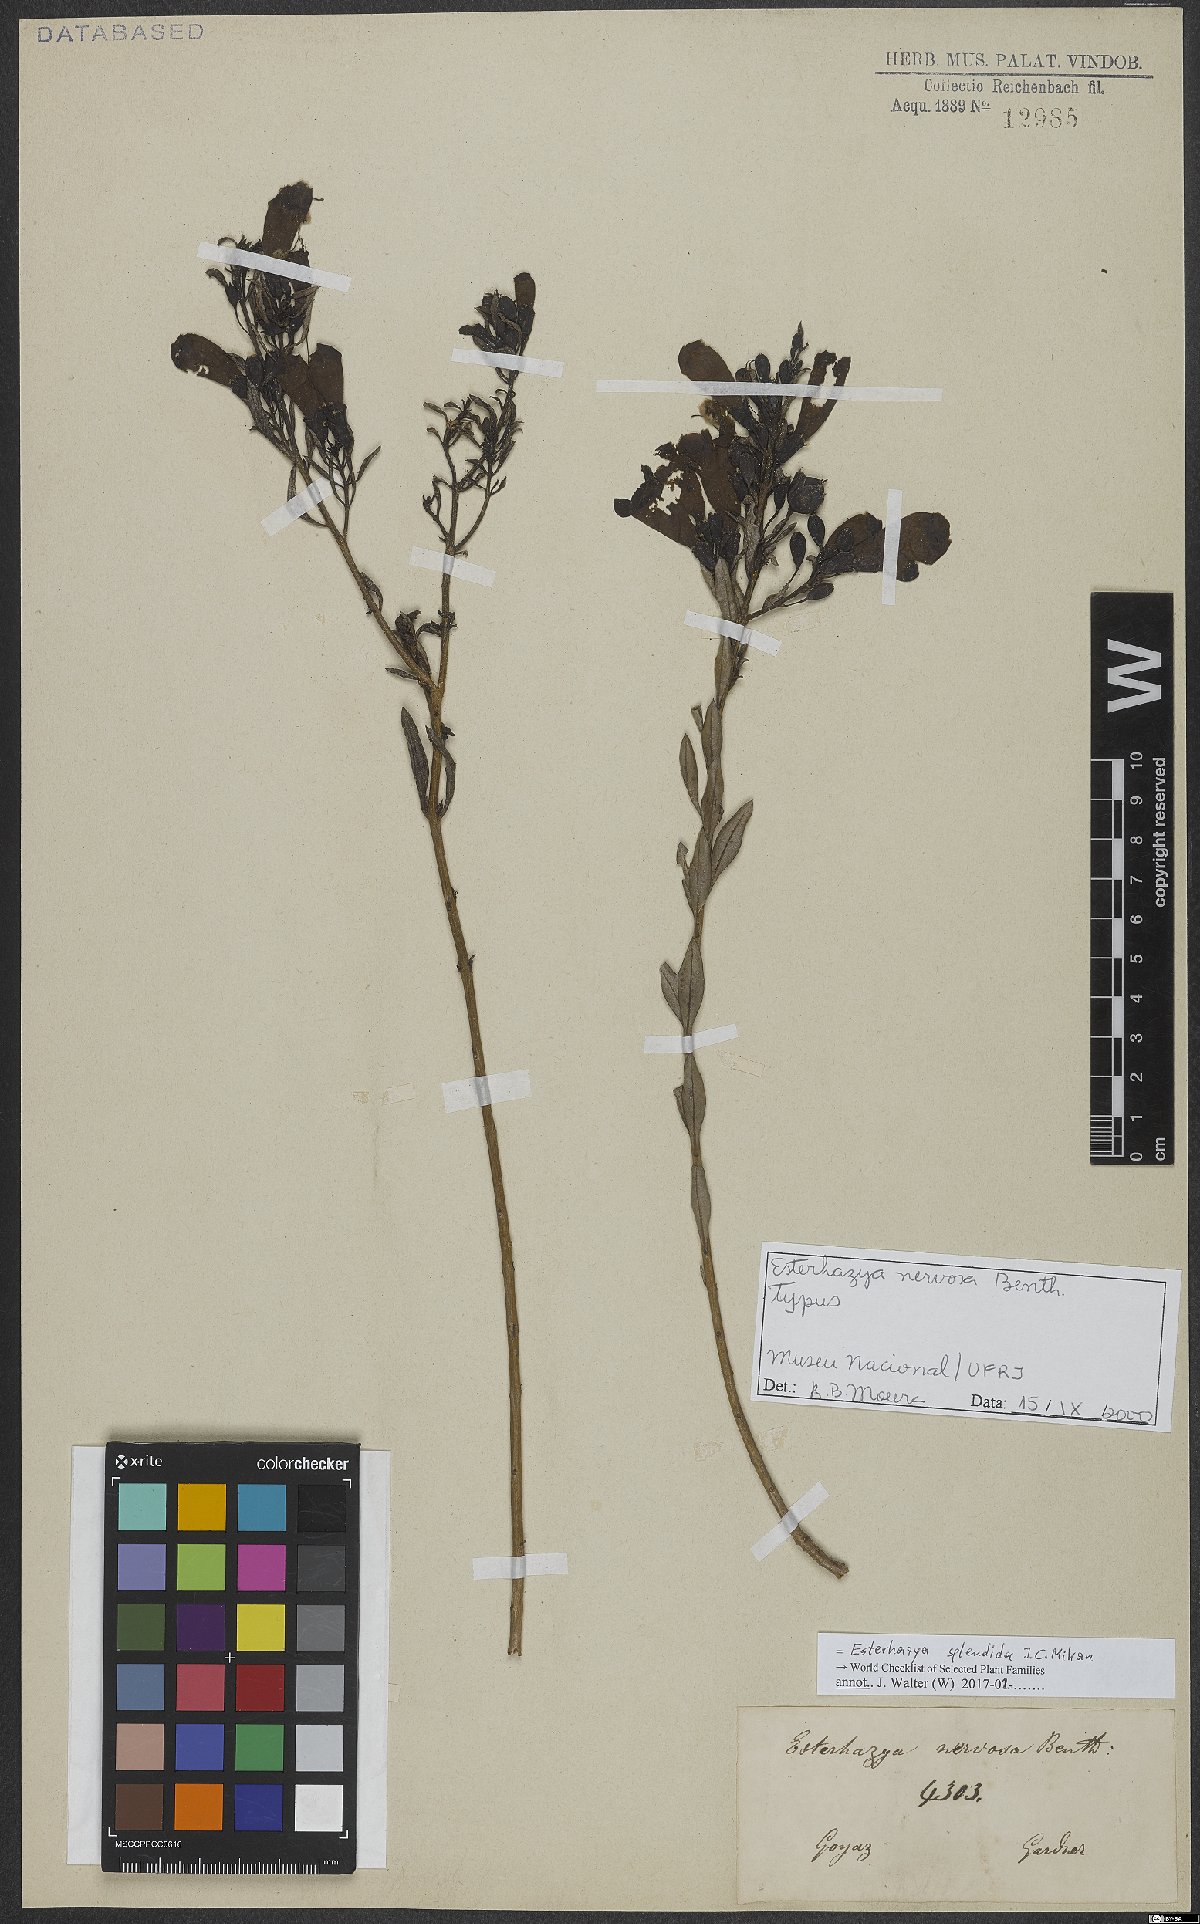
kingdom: Plantae
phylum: Tracheophyta
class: Magnoliopsida
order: Lamiales
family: Orobanchaceae
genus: Esterhazya
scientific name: Esterhazya splendida
